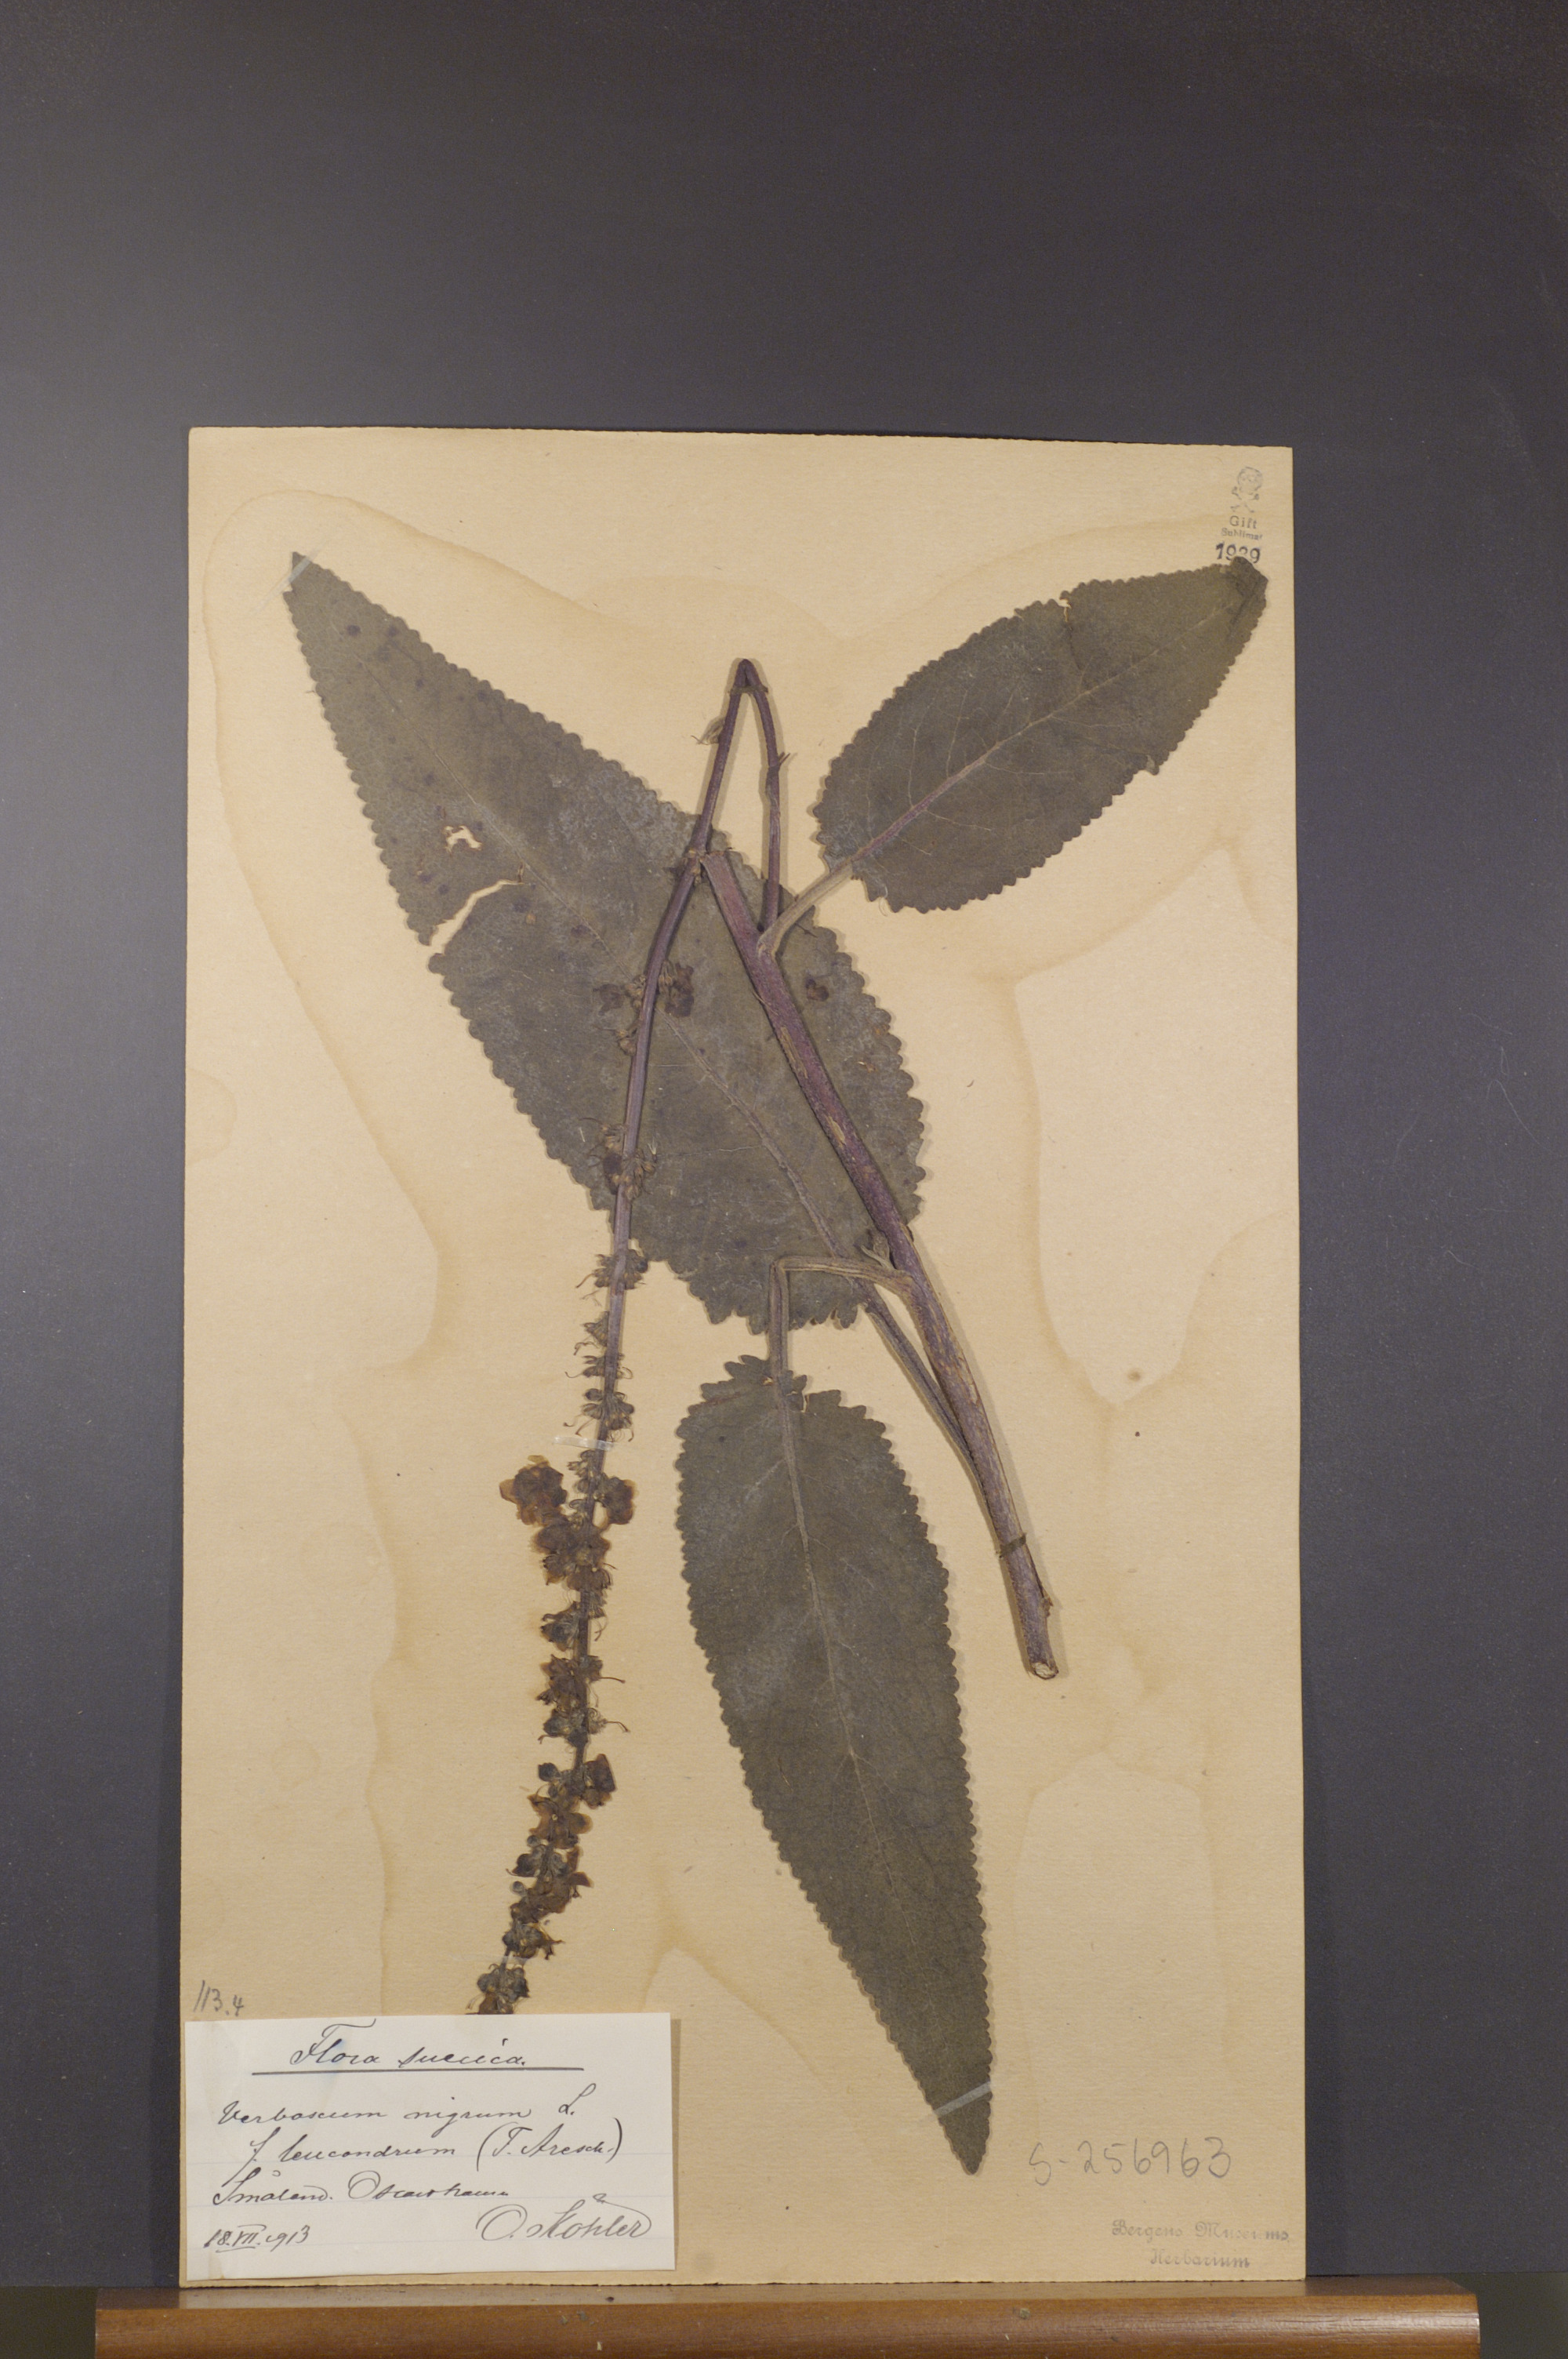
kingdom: Plantae
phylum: Tracheophyta
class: Magnoliopsida
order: Lamiales
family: Scrophulariaceae
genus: Verbascum
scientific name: Verbascum nigrum
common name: Dark mullein
